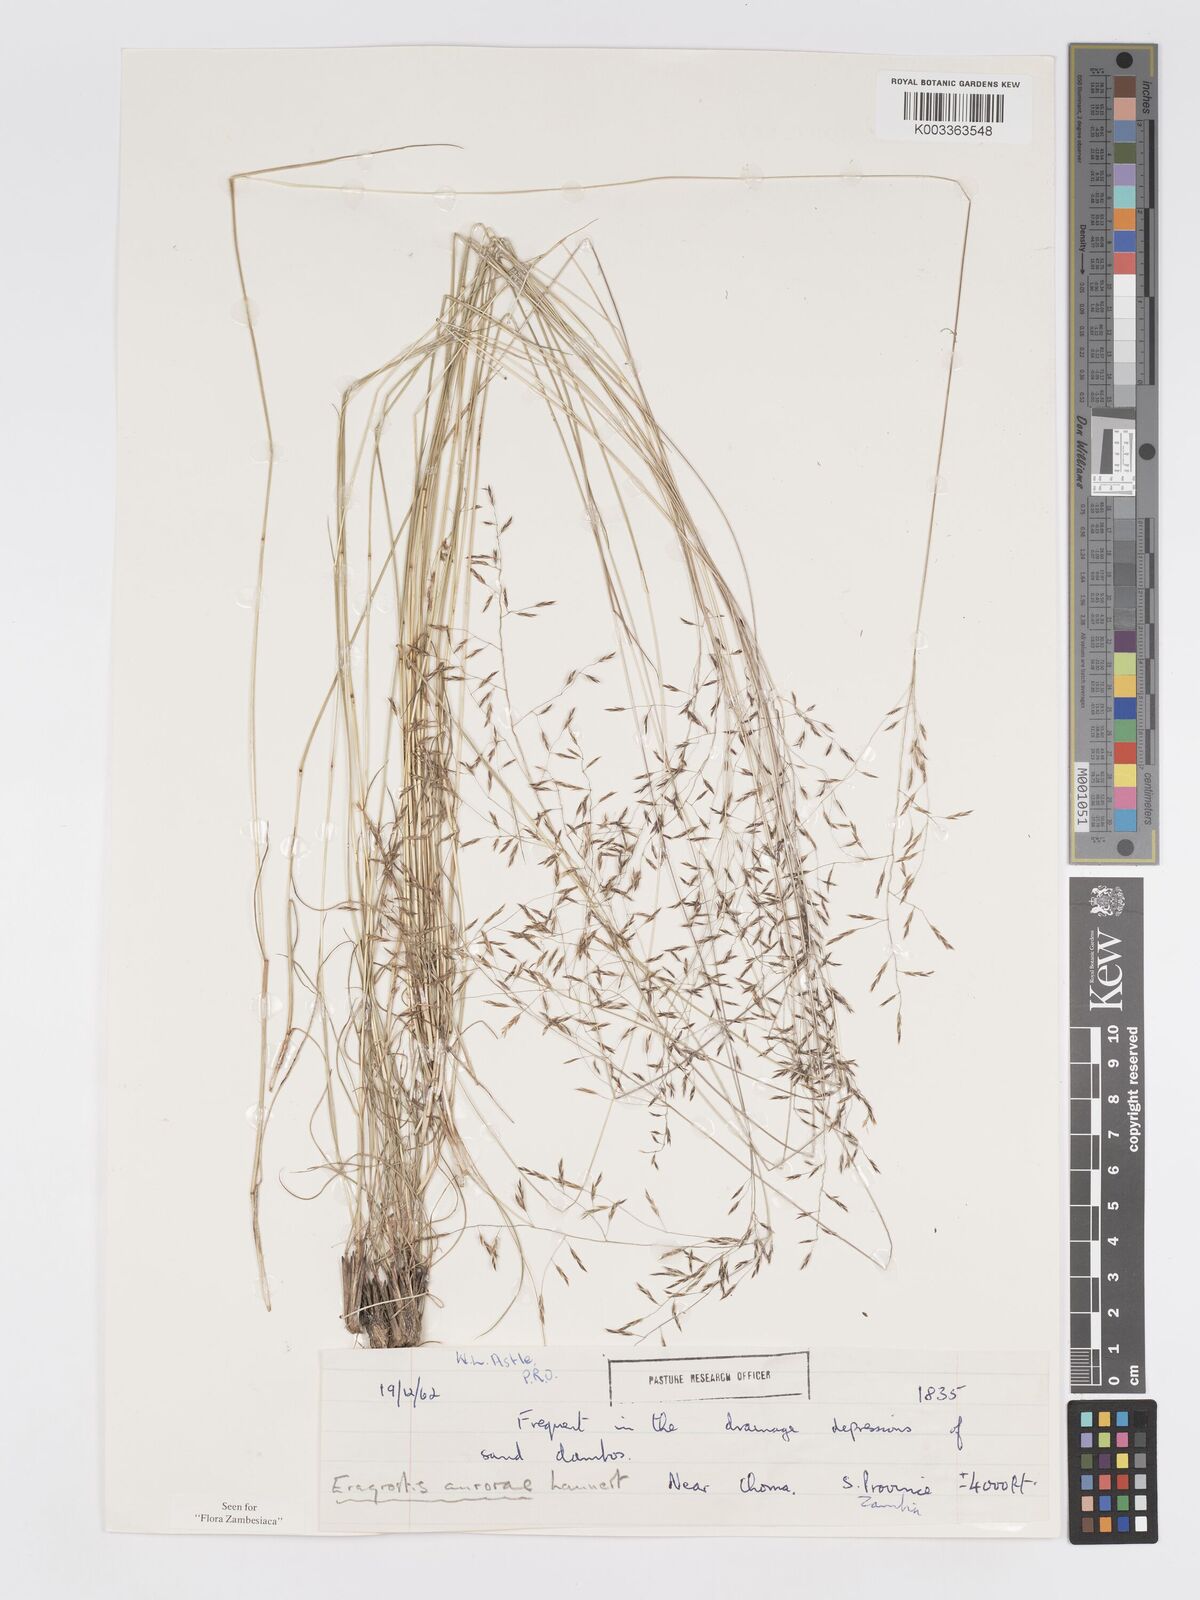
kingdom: Plantae
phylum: Tracheophyta
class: Liliopsida
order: Poales
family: Poaceae
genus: Eragrostis
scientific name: Eragrostis aurorae
